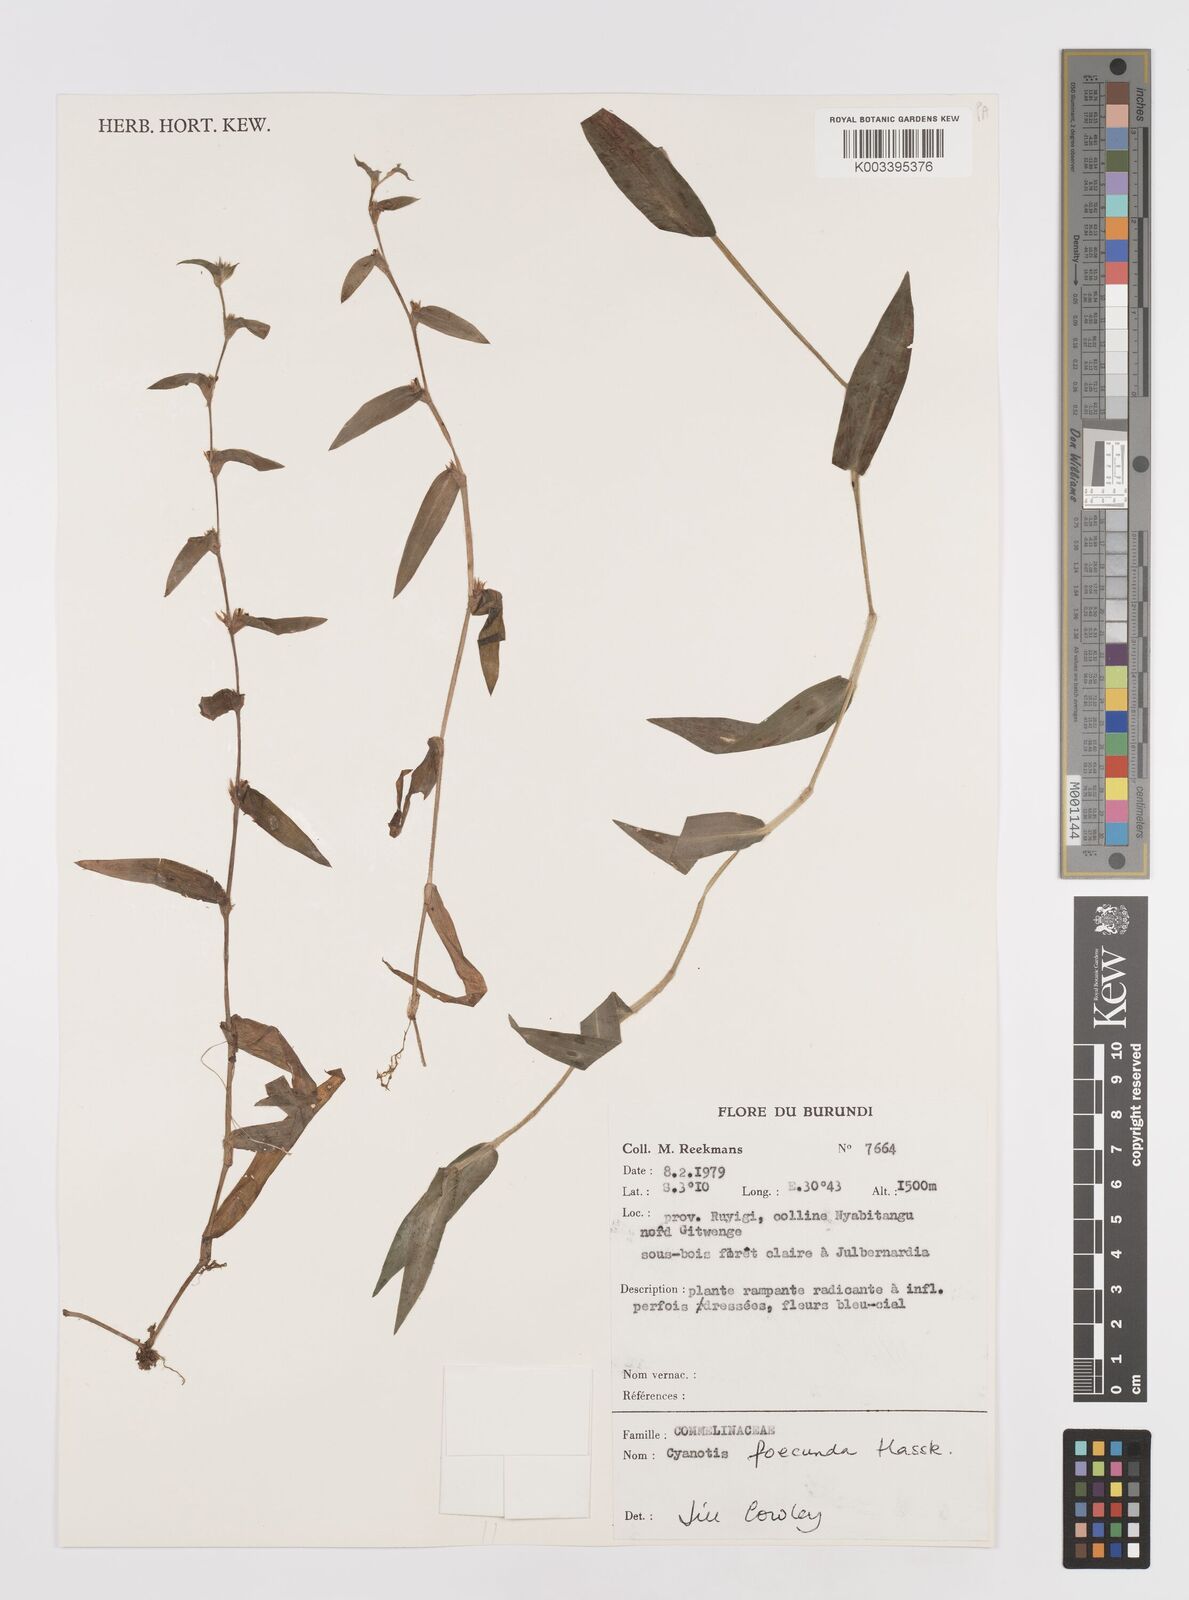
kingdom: Plantae
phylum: Tracheophyta
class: Liliopsida
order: Commelinales
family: Commelinaceae
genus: Cyanotis
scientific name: Cyanotis foecunda
